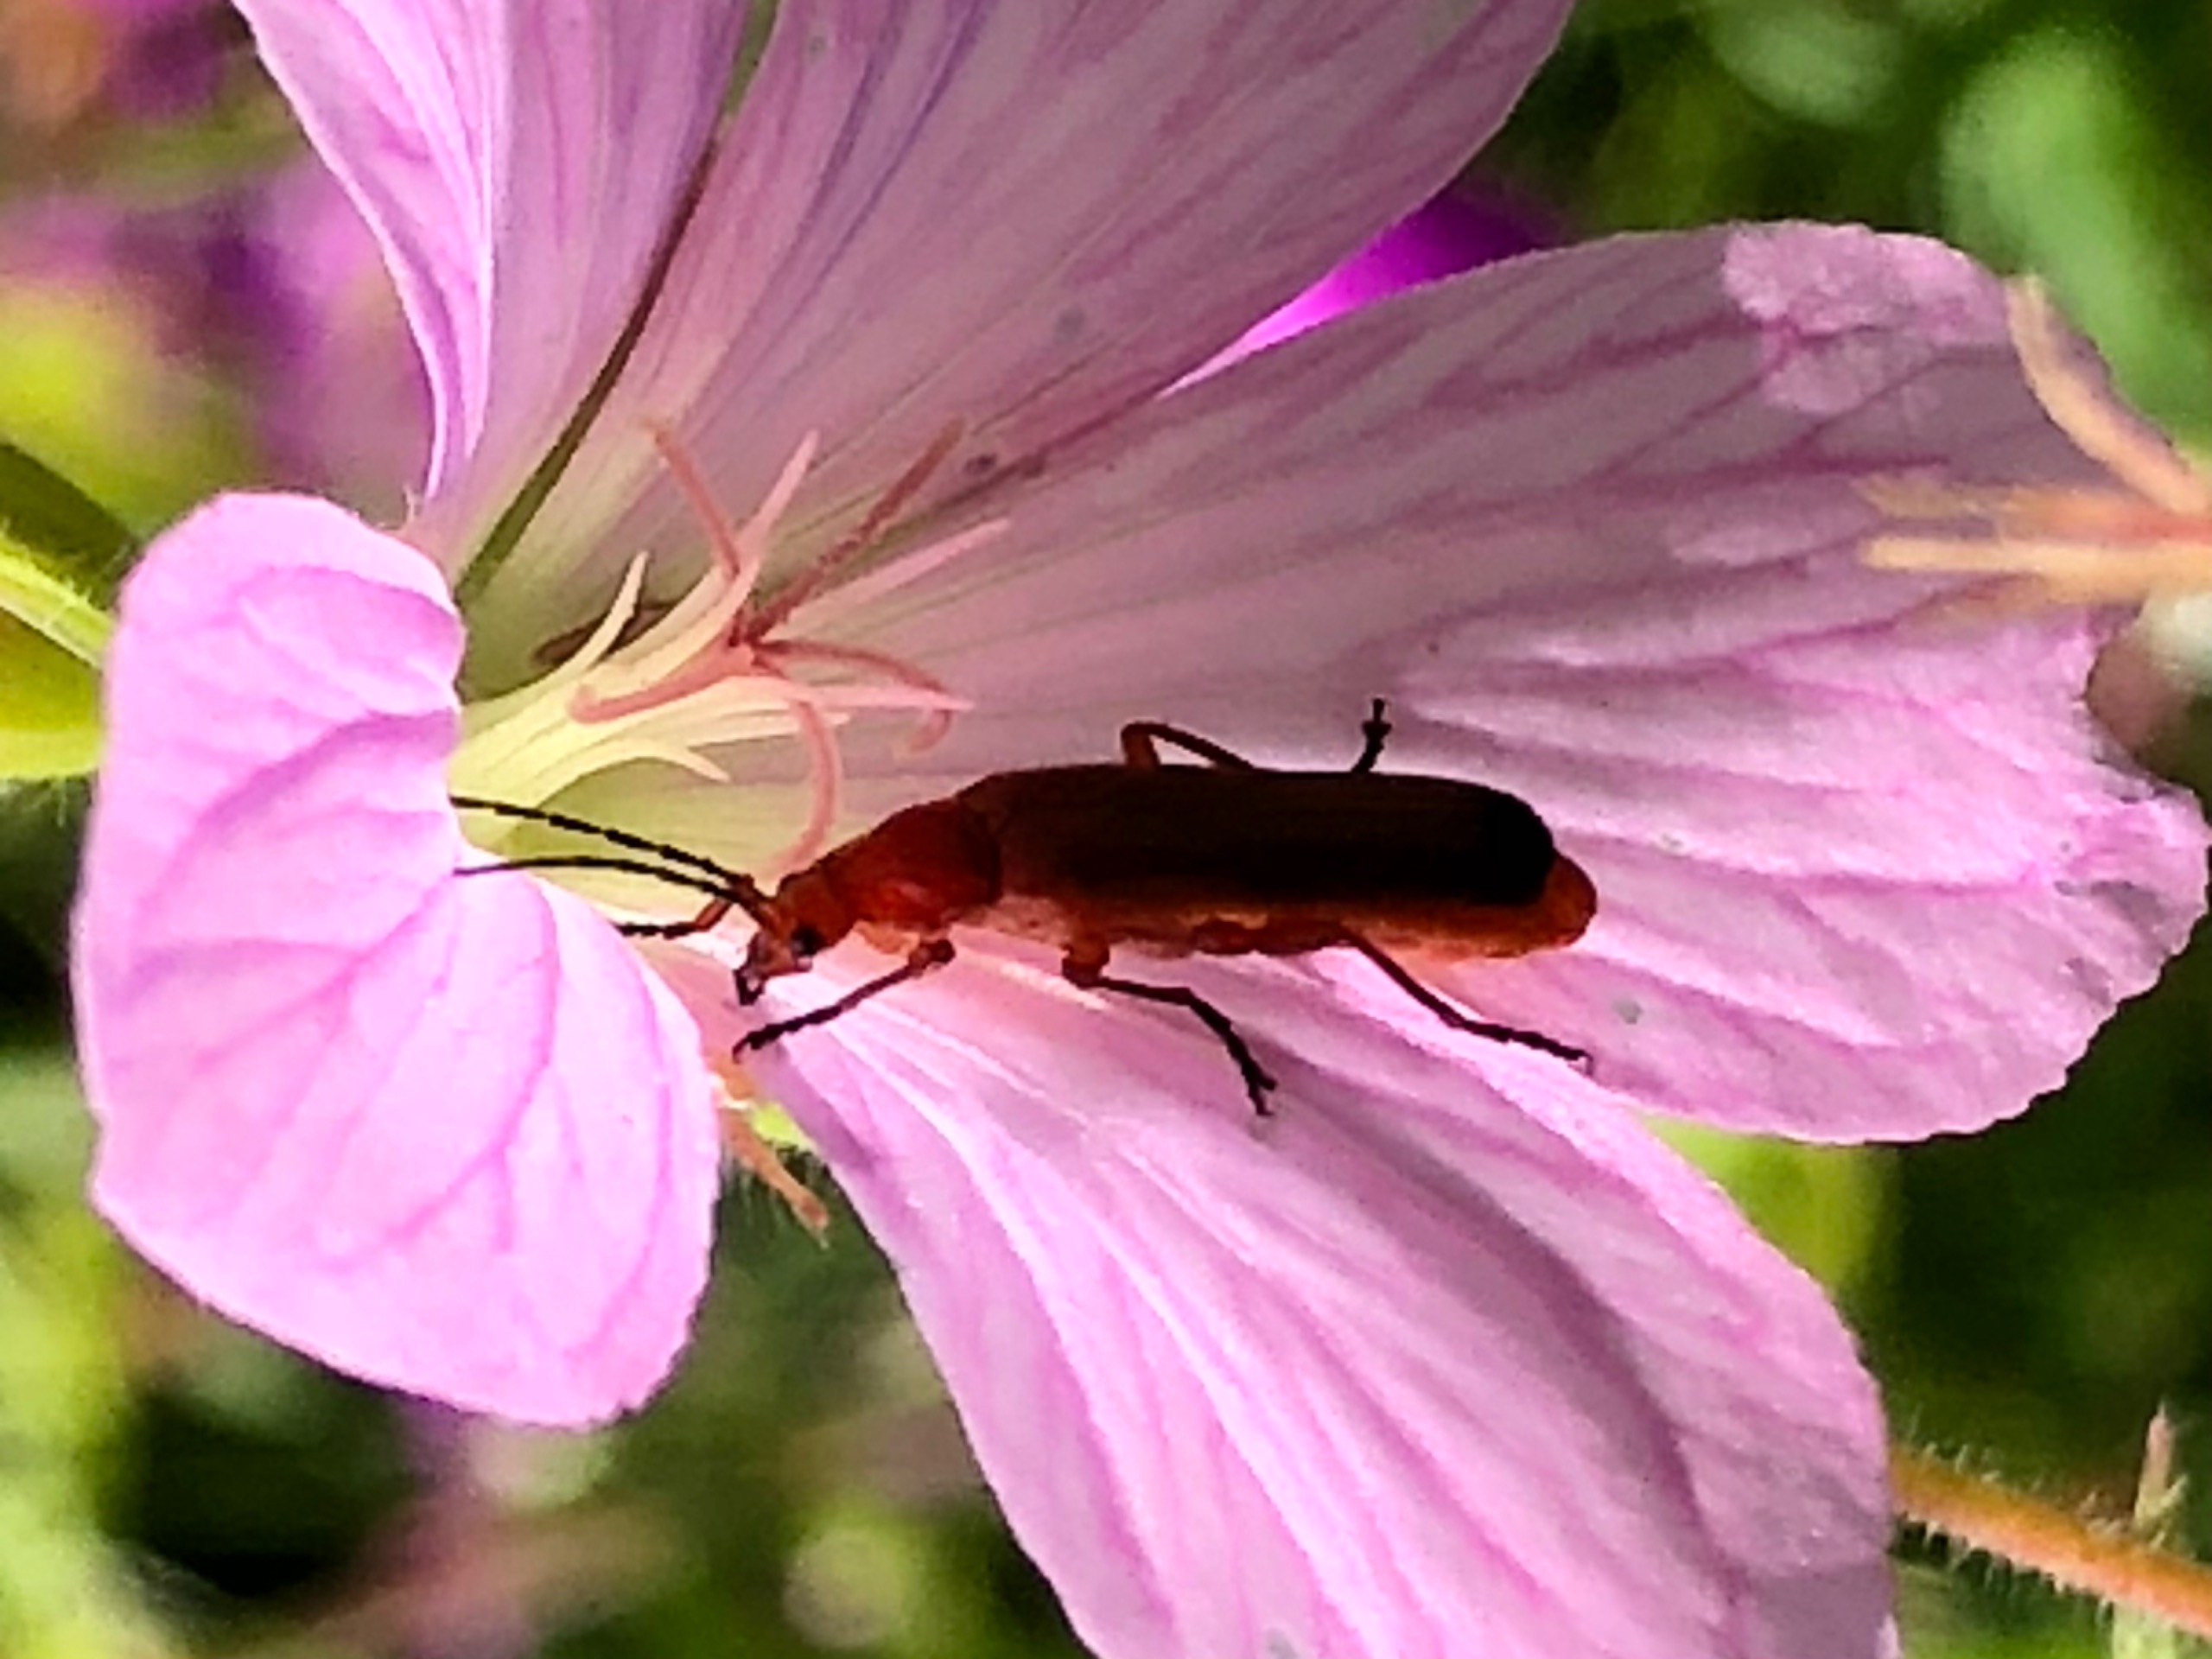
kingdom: Animalia
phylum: Arthropoda
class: Insecta
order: Coleoptera
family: Cantharidae
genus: Rhagonycha
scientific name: Rhagonycha fulva
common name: Præstebille
